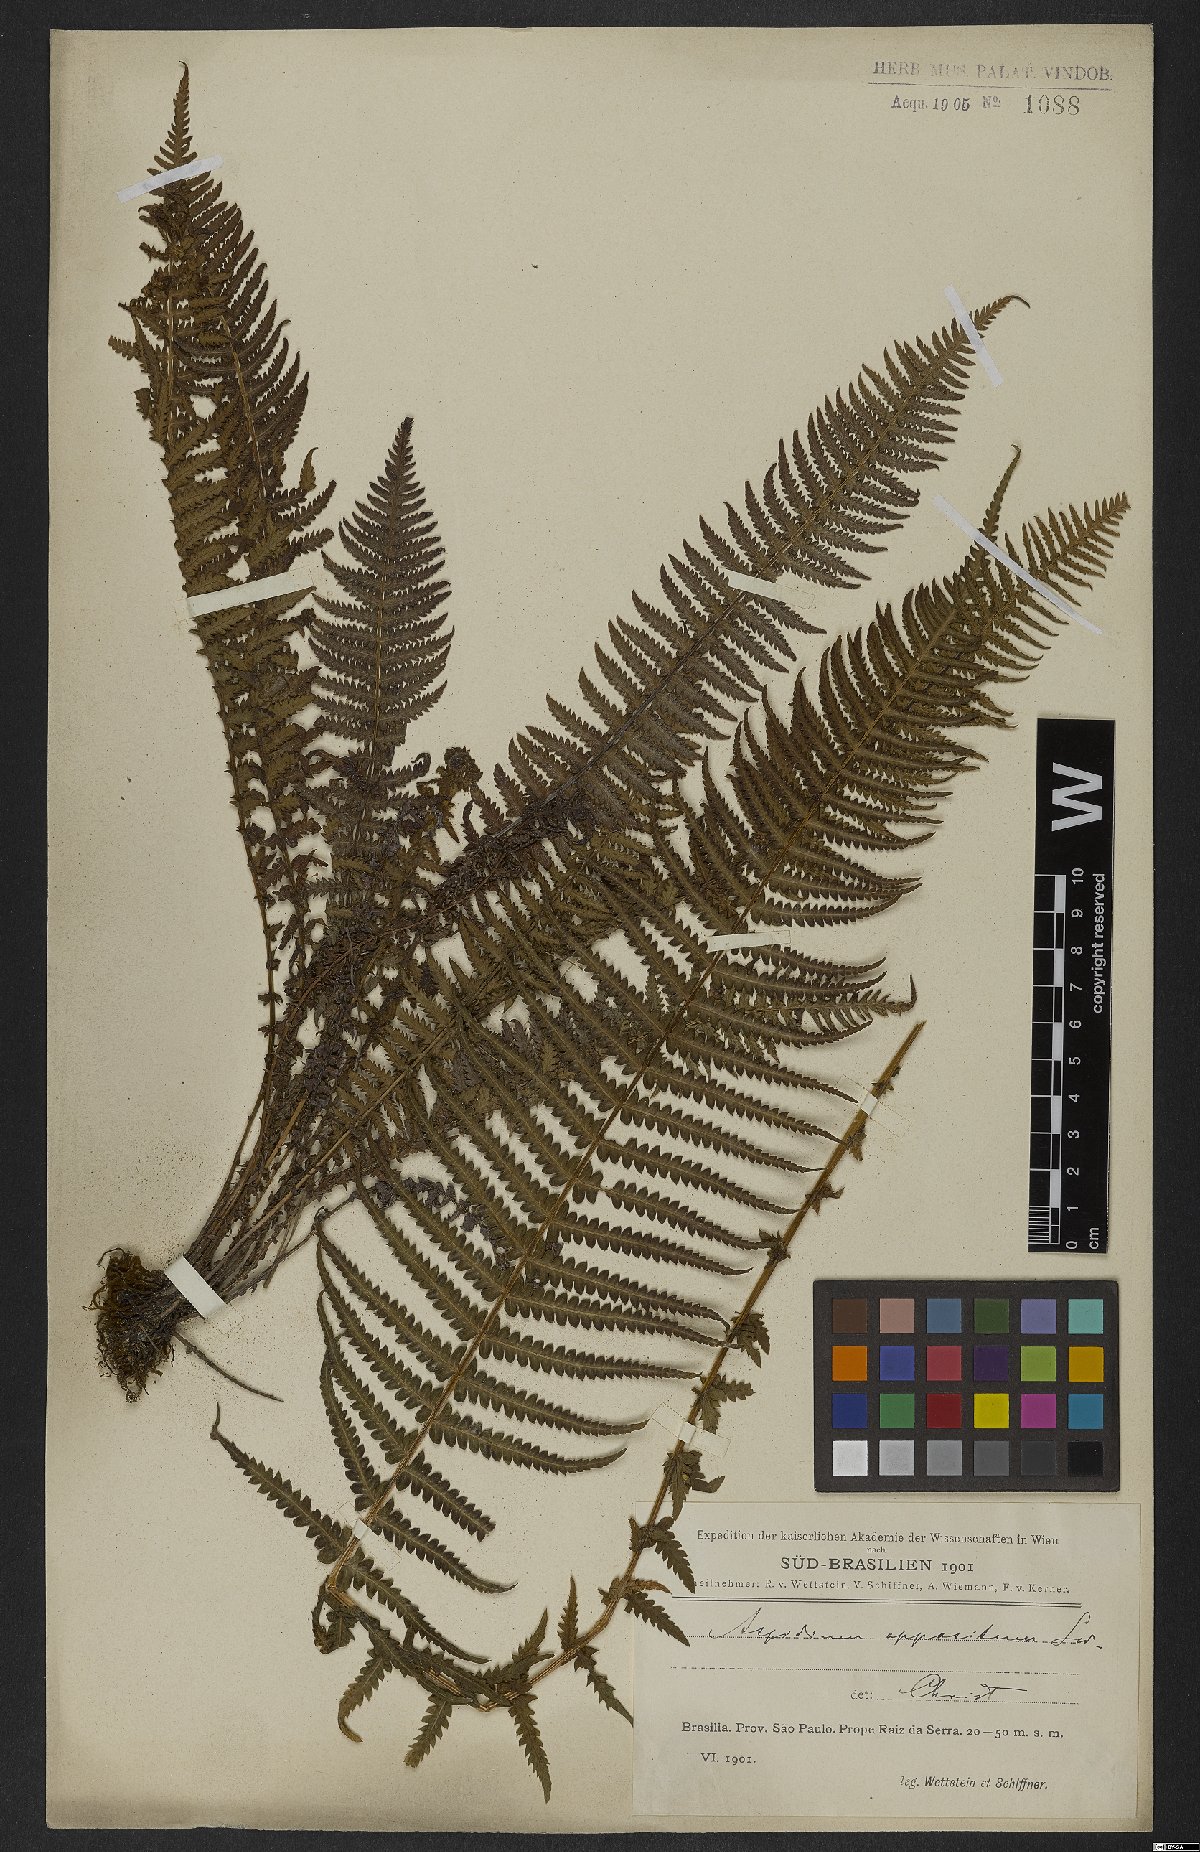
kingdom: Plantae
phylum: Tracheophyta
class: Polypodiopsida
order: Polypodiales
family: Thelypteridaceae
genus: Amauropelta
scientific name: Amauropelta opposita
